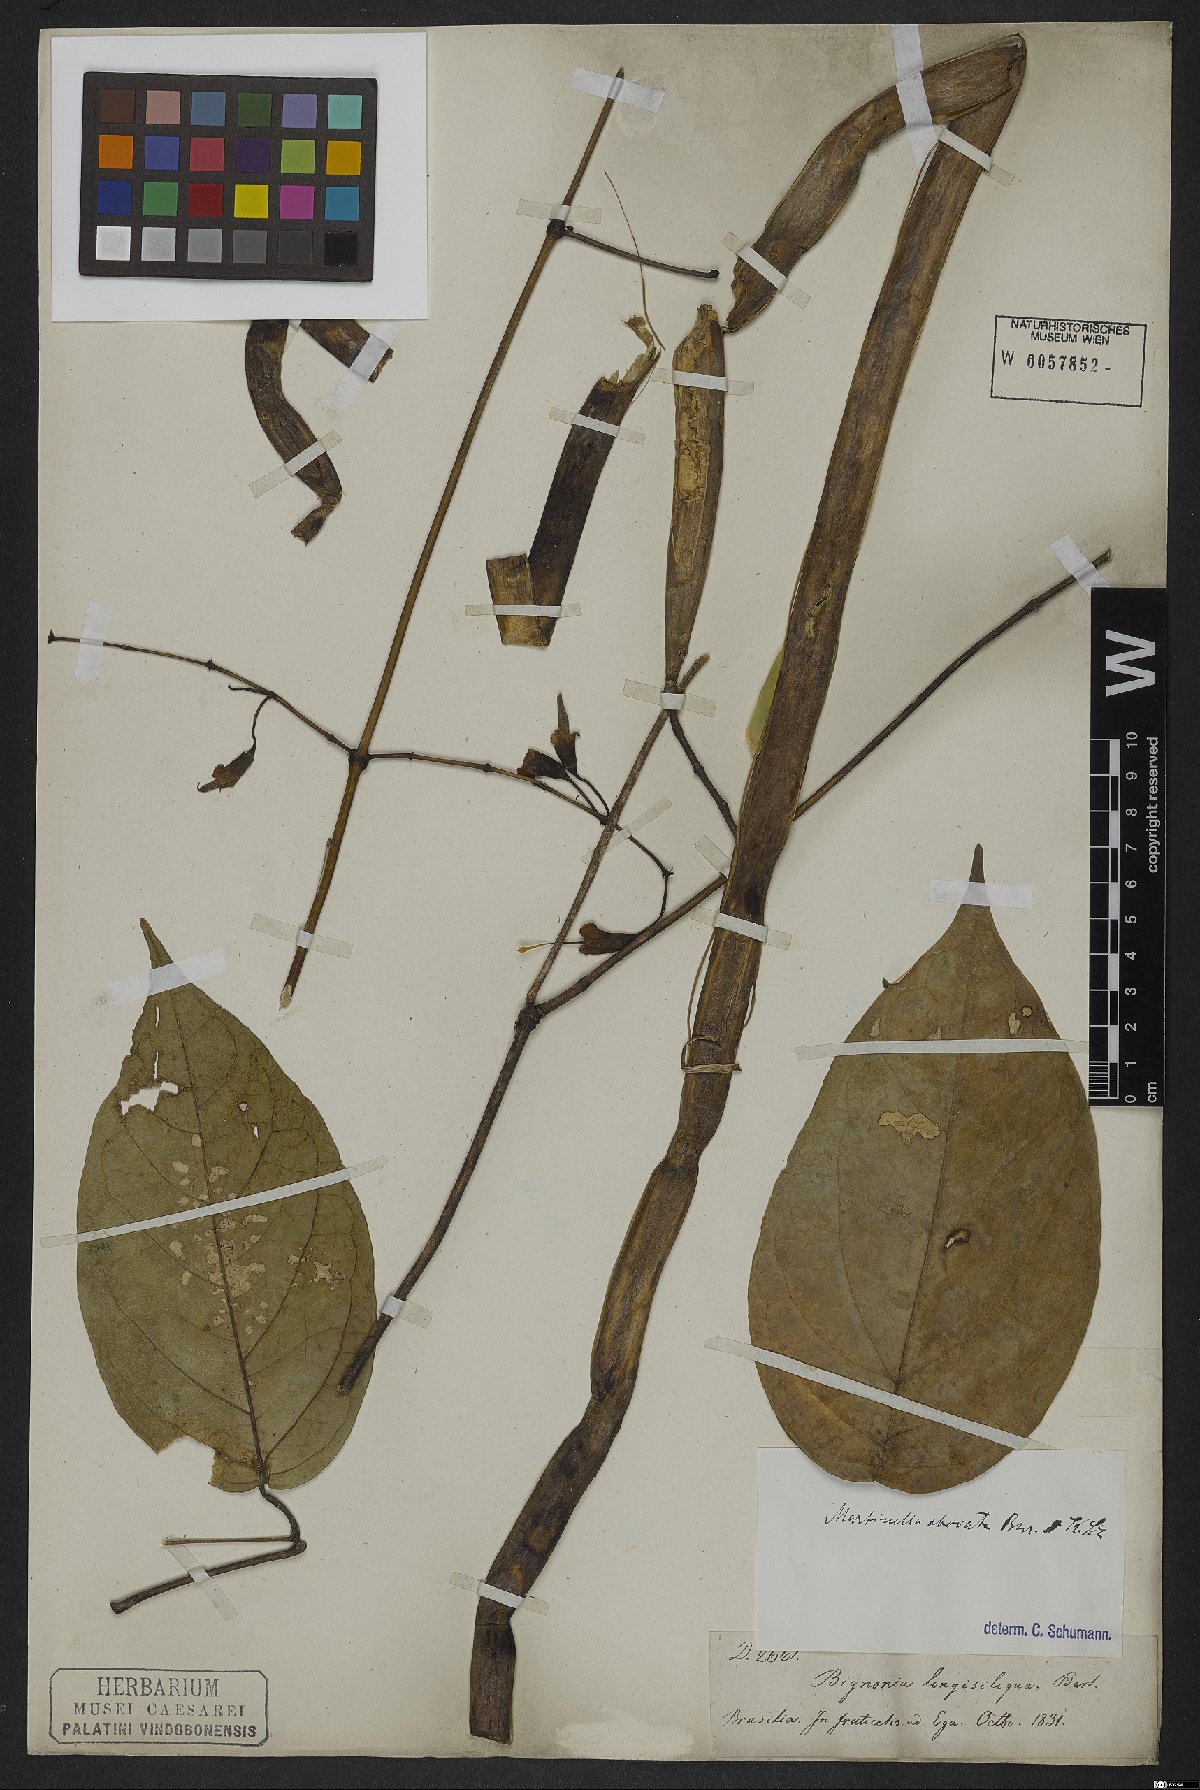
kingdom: Animalia
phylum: Arthropoda
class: Insecta
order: Coleoptera
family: Chrysomelidae
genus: Martinella
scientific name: Martinella obovata
